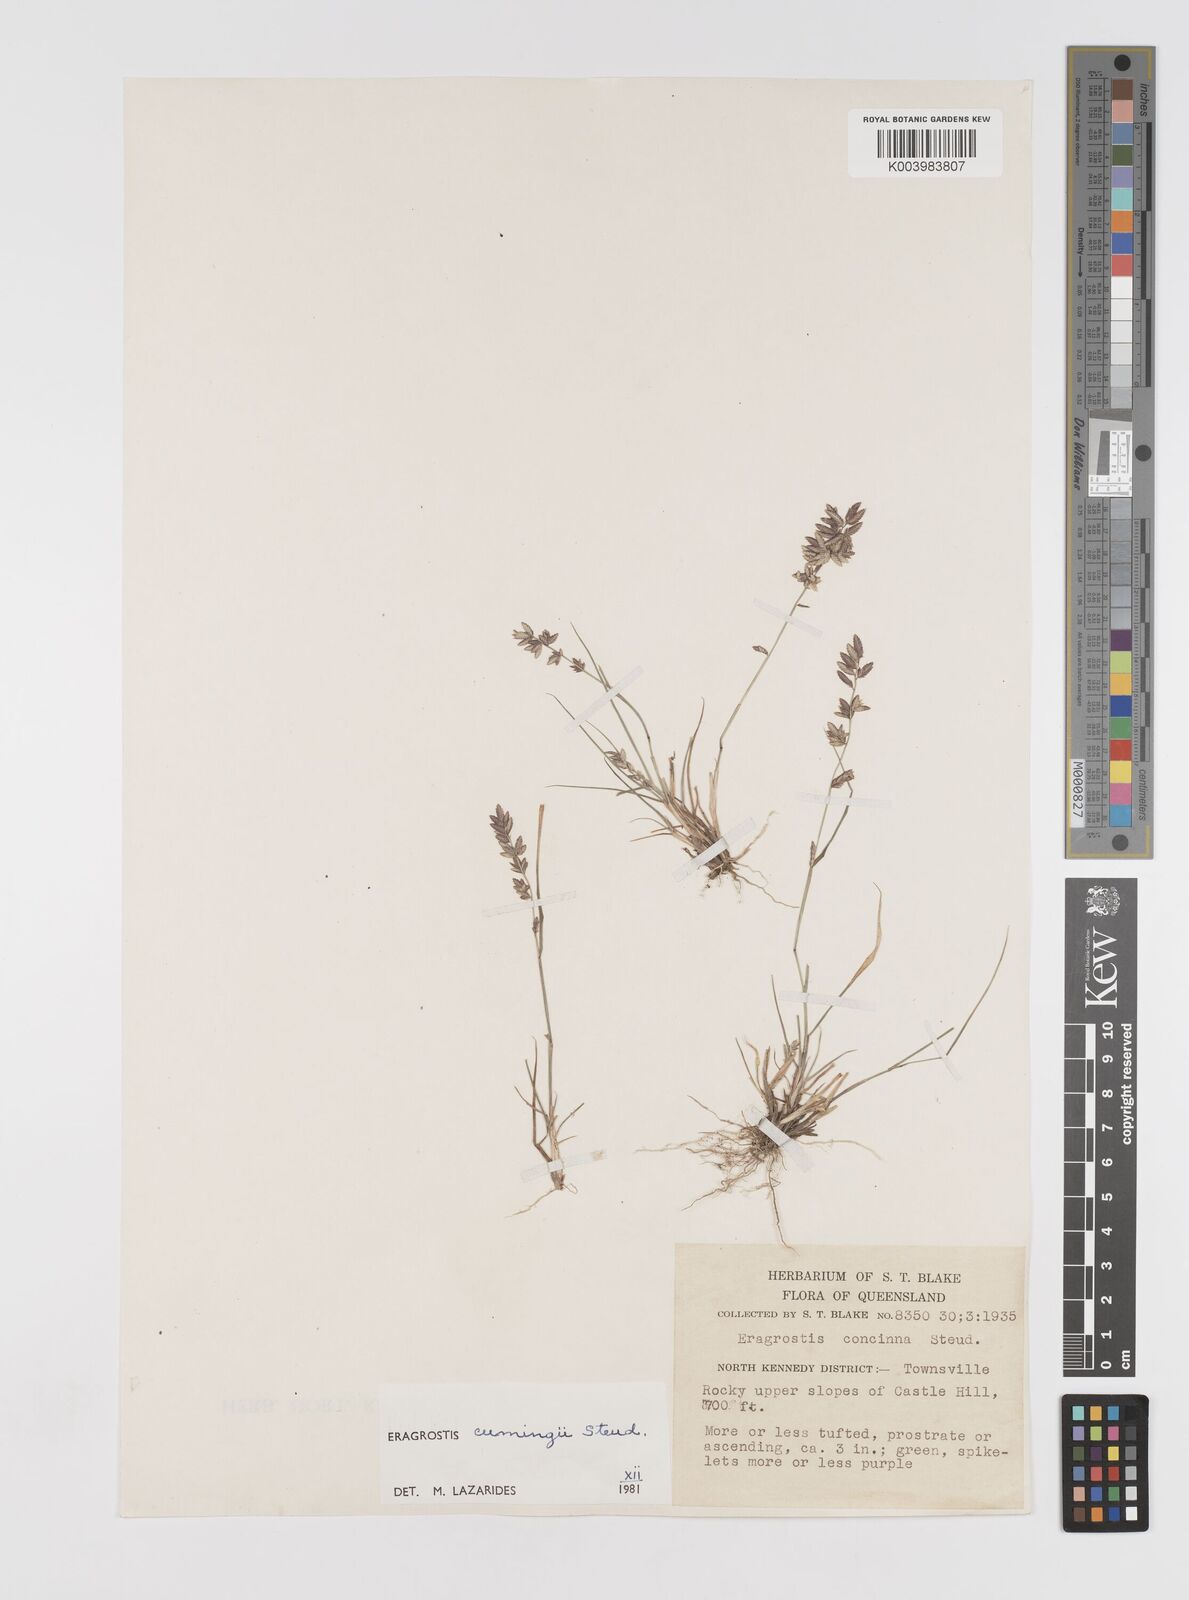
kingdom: Plantae
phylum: Tracheophyta
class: Liliopsida
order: Poales
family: Poaceae
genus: Eragrostis
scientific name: Eragrostis cumingii
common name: Cuming's lovegrass
